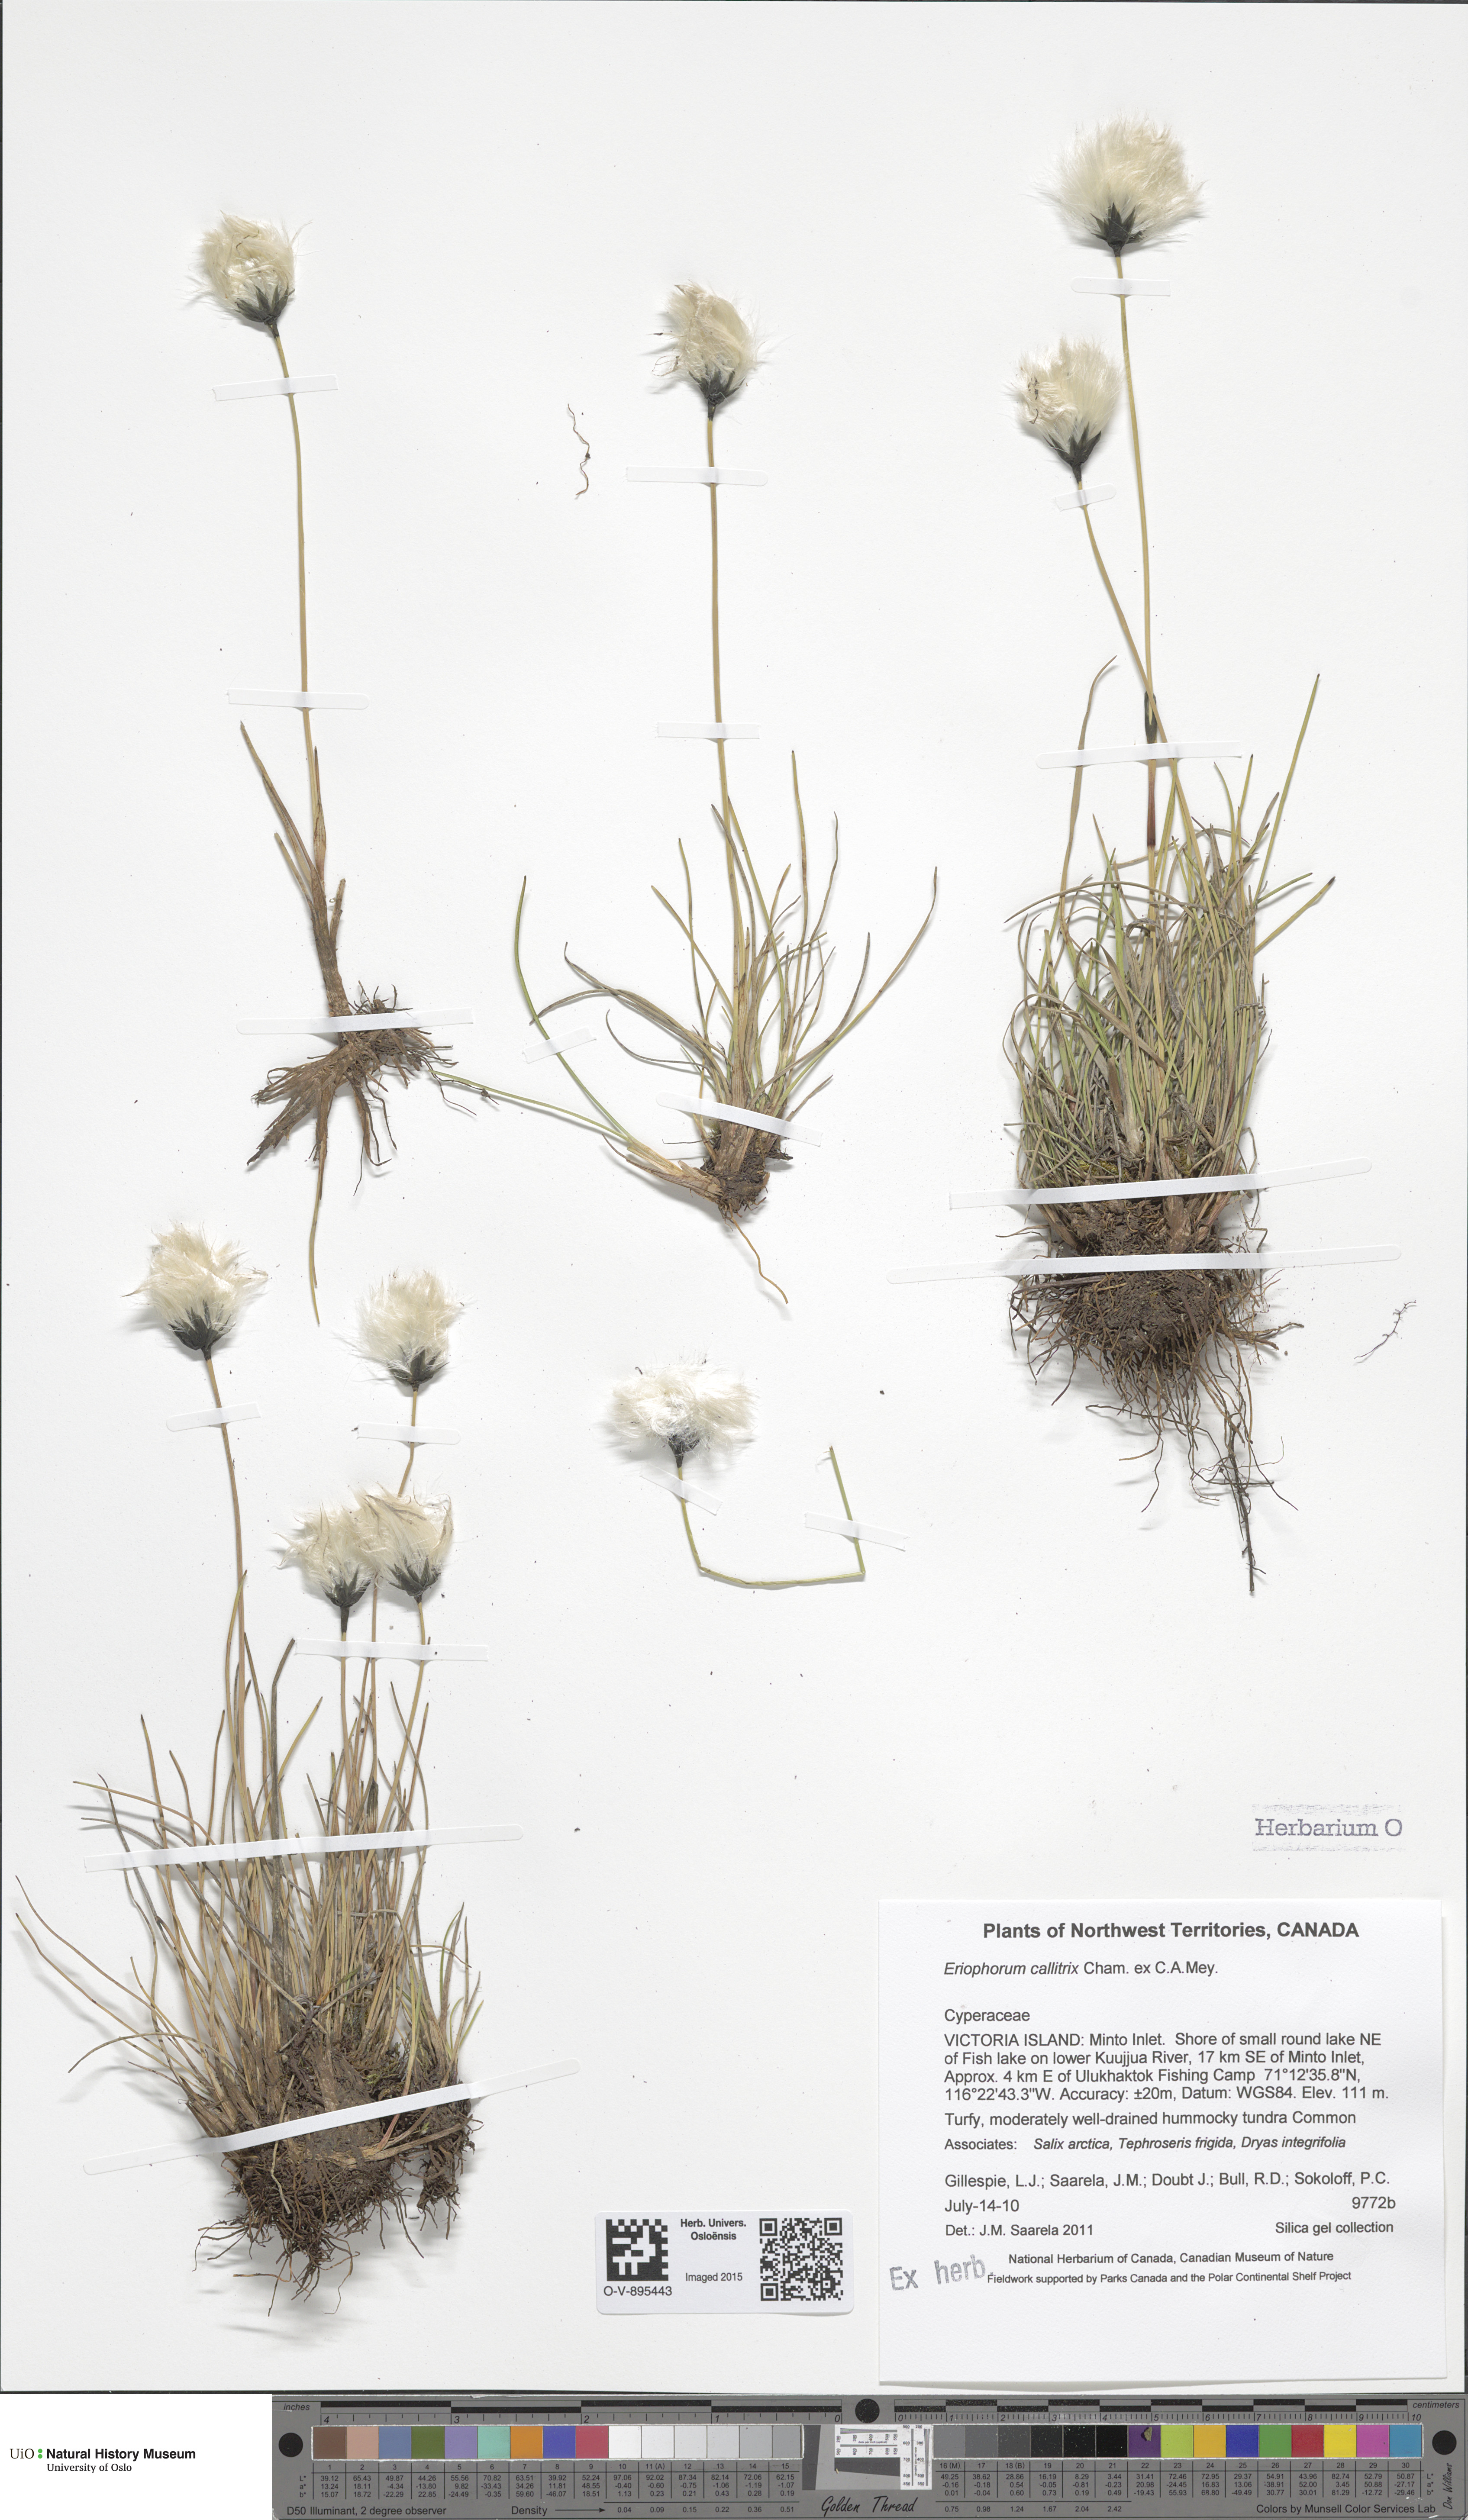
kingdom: Plantae
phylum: Tracheophyta
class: Liliopsida
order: Poales
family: Cyperaceae
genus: Eriophorum
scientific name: Eriophorum callitrix
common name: Arctic cottongrass
